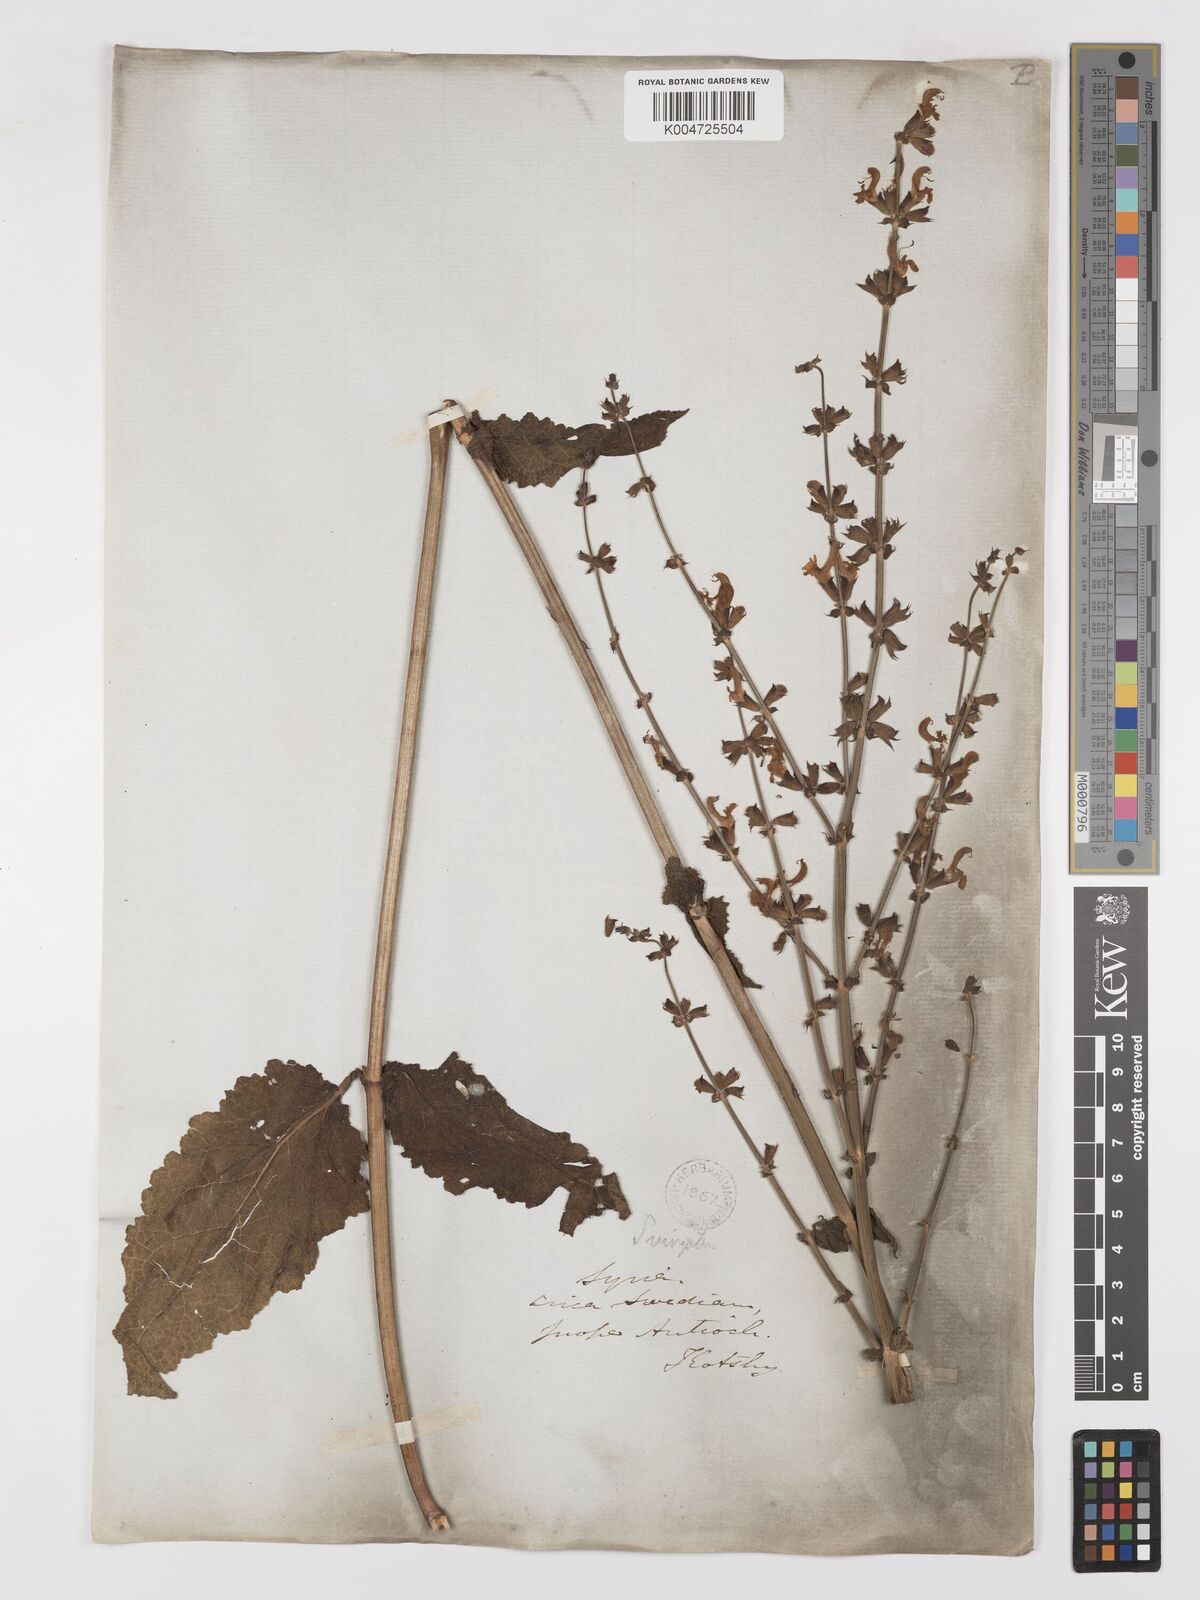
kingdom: Plantae
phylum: Tracheophyta
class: Magnoliopsida
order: Lamiales
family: Lamiaceae
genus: Salvia
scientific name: Salvia
